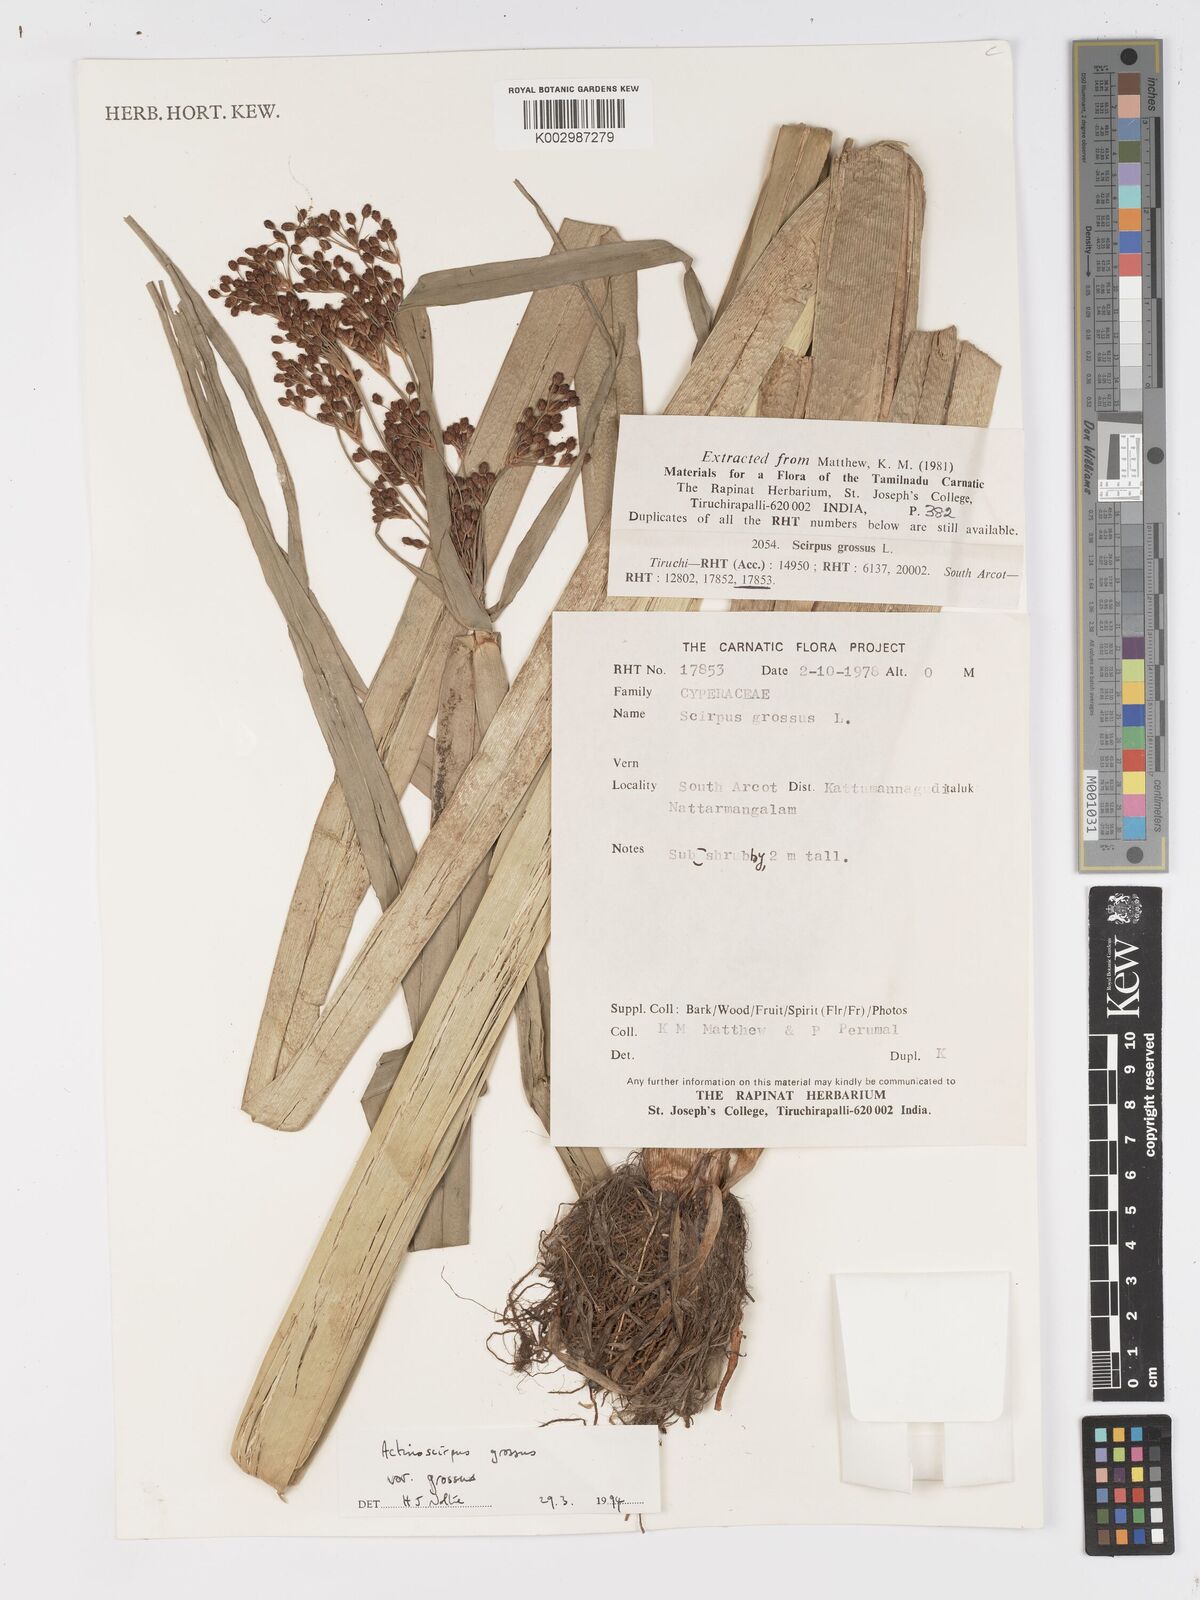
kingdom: Plantae
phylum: Tracheophyta
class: Liliopsida
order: Poales
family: Cyperaceae
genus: Actinoscirpus
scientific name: Actinoscirpus grossus
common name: Giant bur rush
